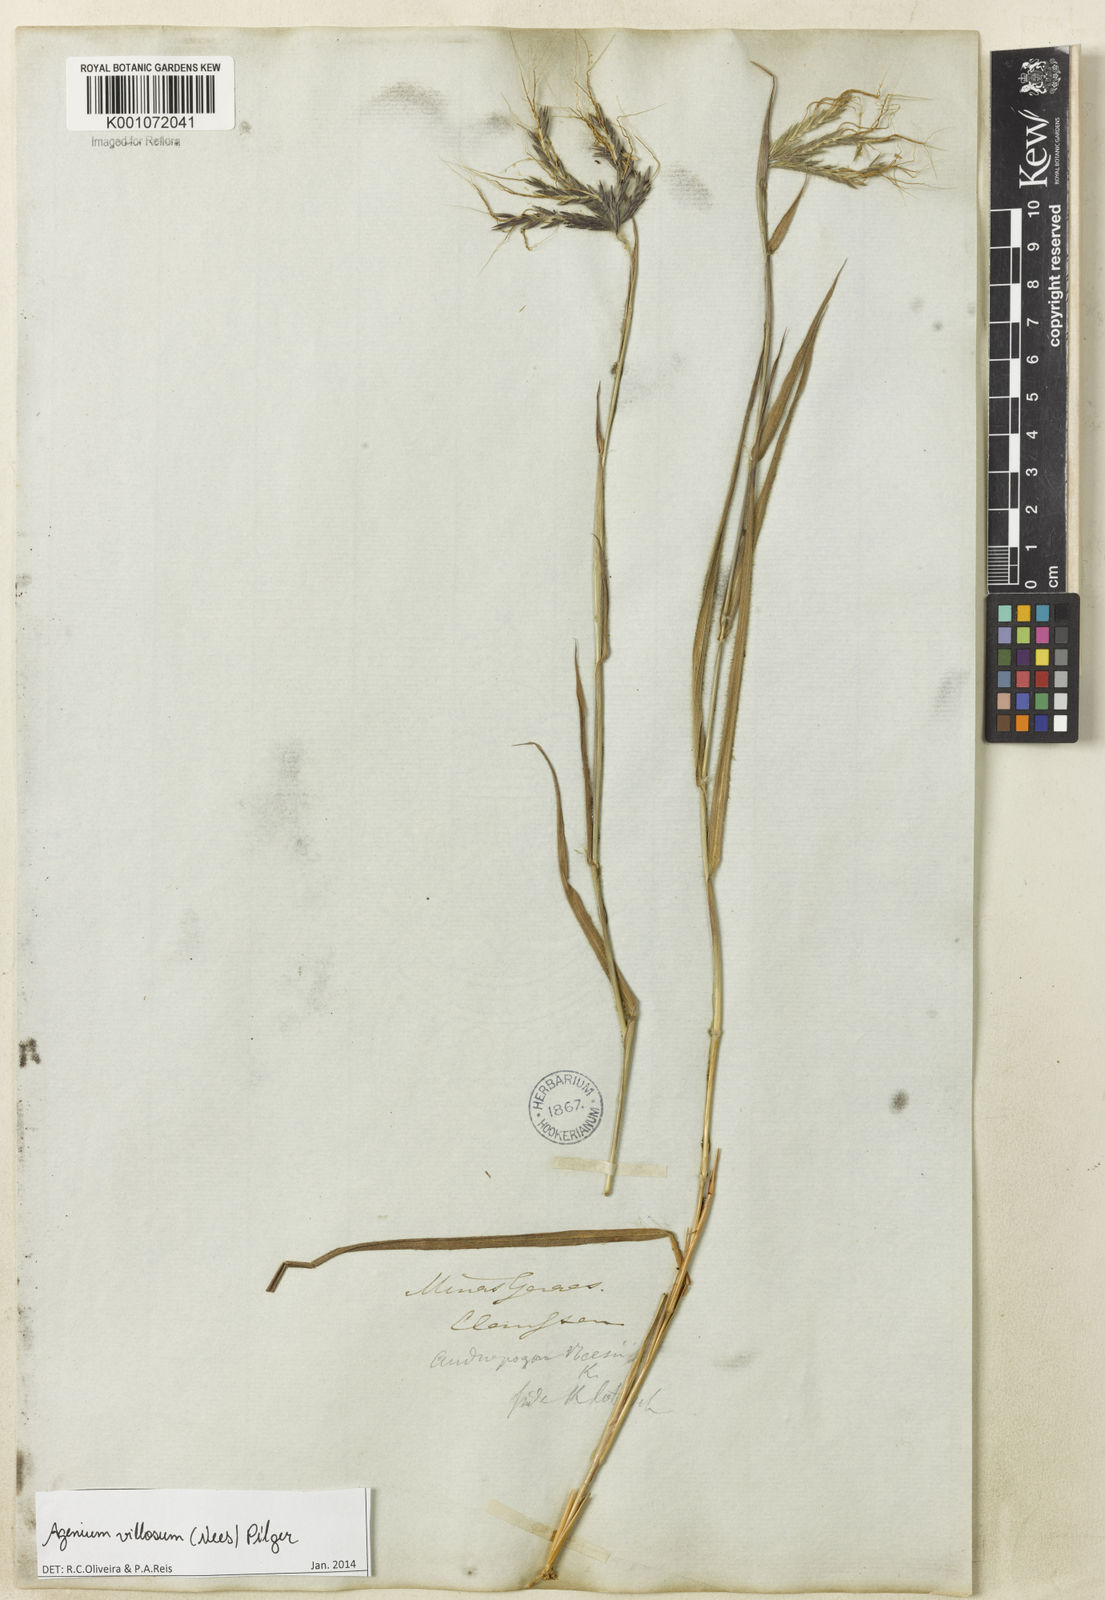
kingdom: Plantae
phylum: Tracheophyta
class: Liliopsida
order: Poales
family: Poaceae
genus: Agenium
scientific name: Agenium villosum
